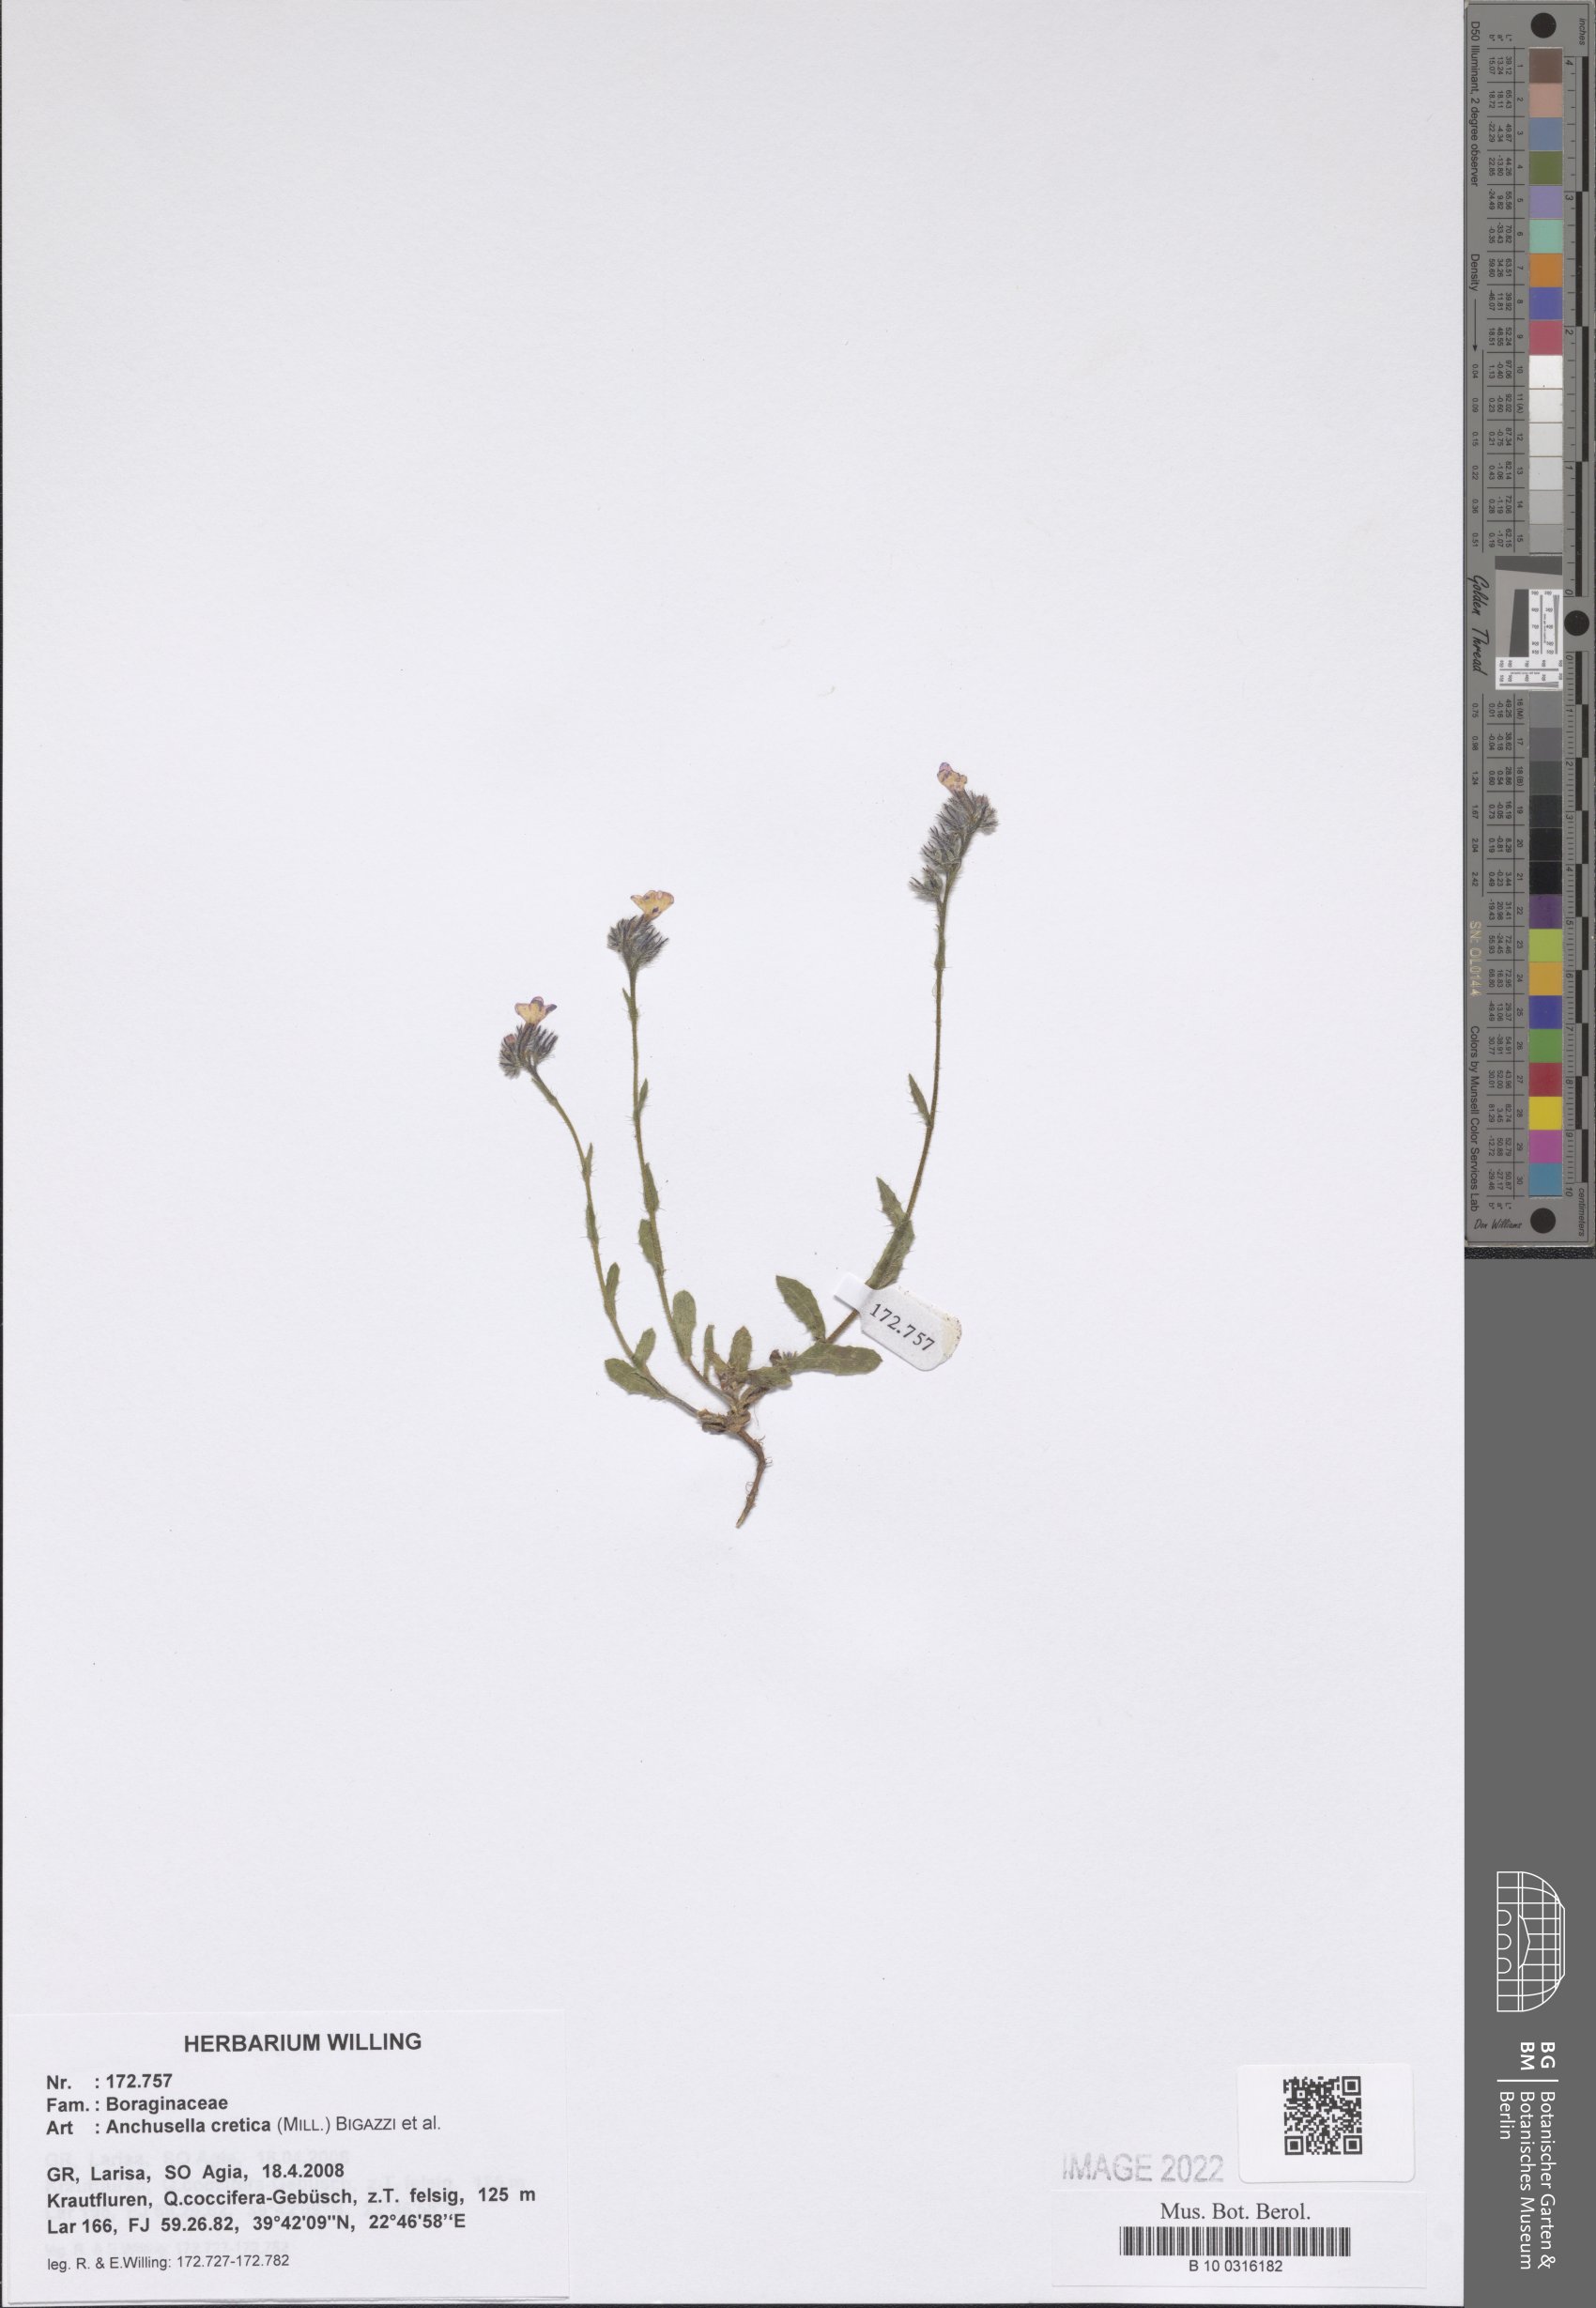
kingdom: Plantae
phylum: Tracheophyta
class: Magnoliopsida
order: Boraginales
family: Boraginaceae
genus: Anchusella
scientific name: Anchusella cretica
